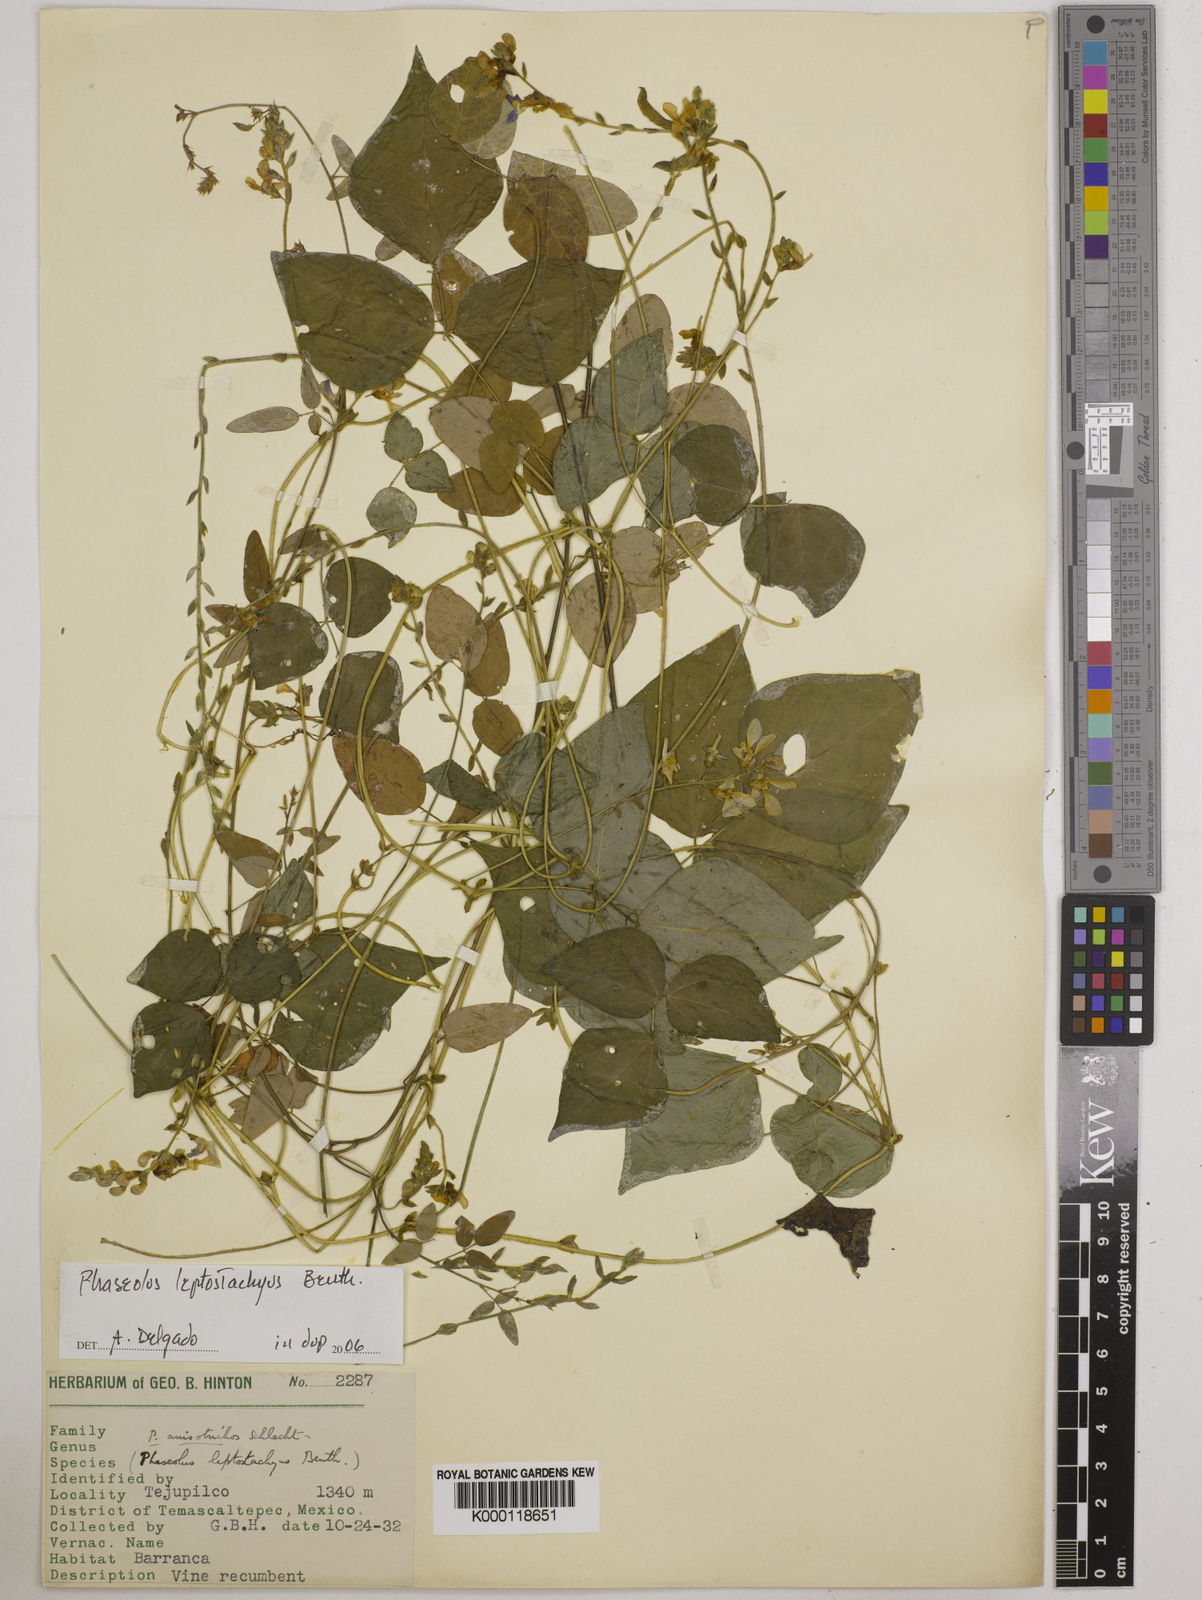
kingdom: Plantae
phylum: Tracheophyta
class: Magnoliopsida
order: Fabales
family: Fabaceae
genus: Phaseolus
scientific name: Phaseolus
